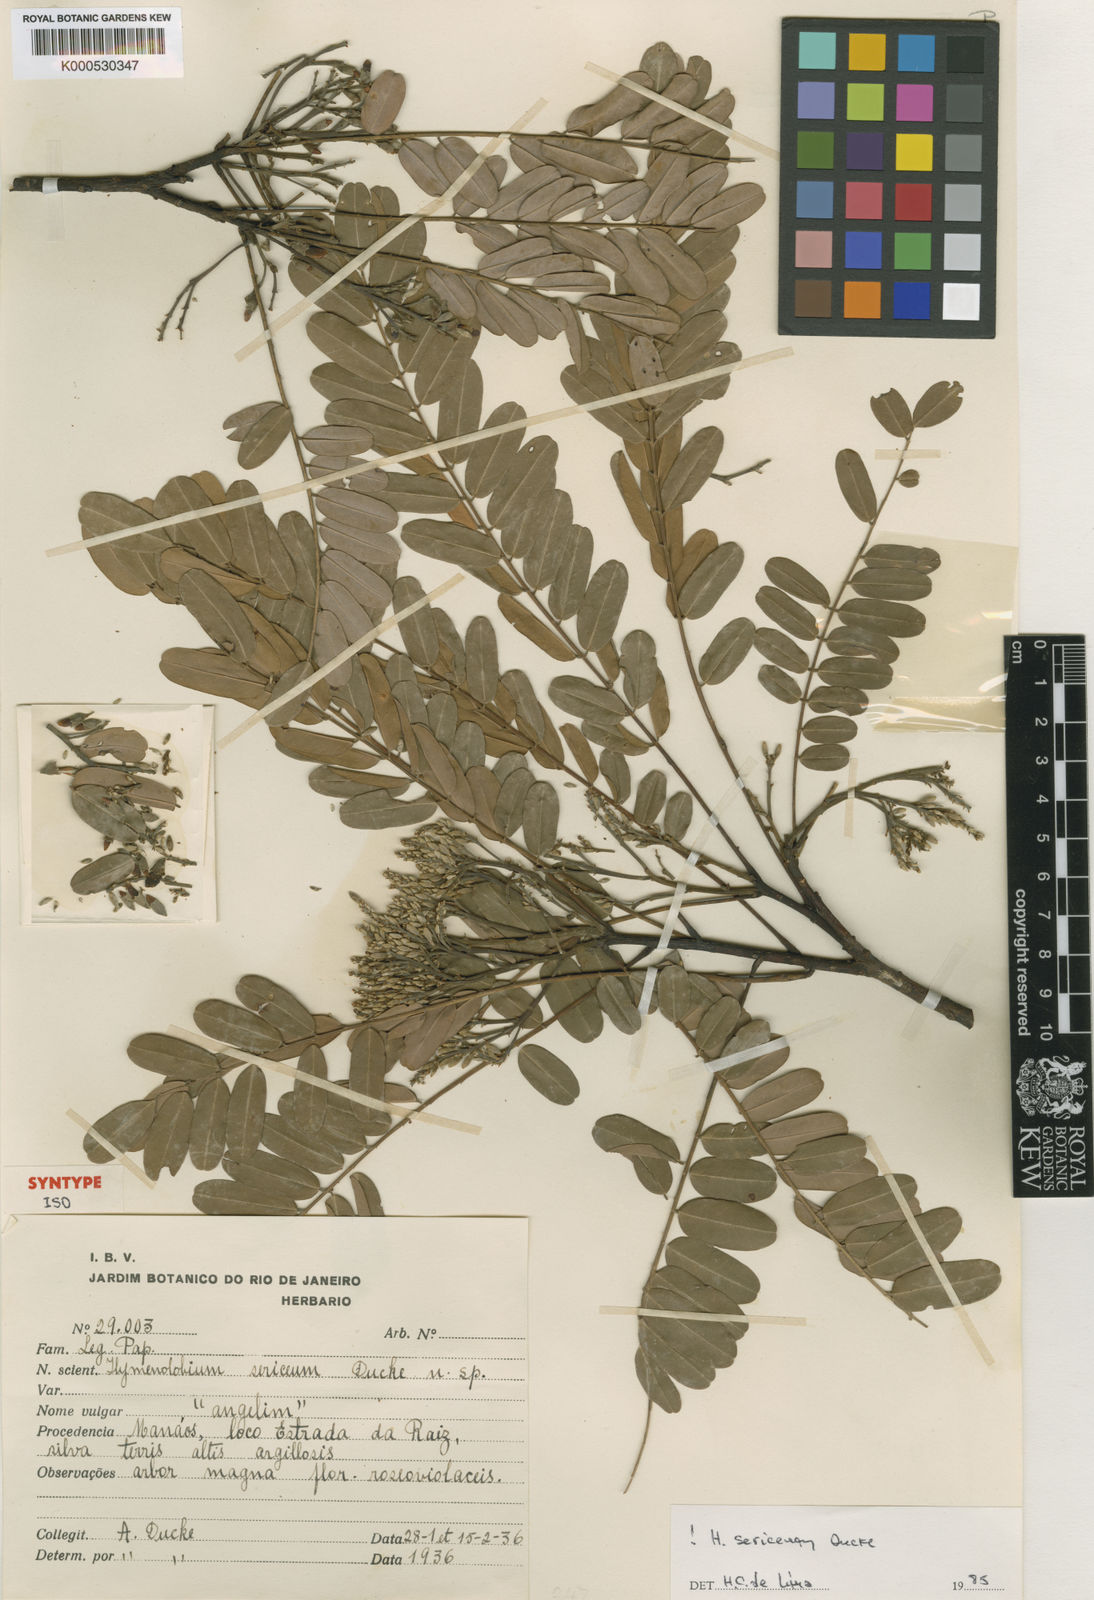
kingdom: Plantae
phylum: Tracheophyta
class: Magnoliopsida
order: Fabales
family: Fabaceae
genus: Hymenolobium
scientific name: Hymenolobium sericeum
